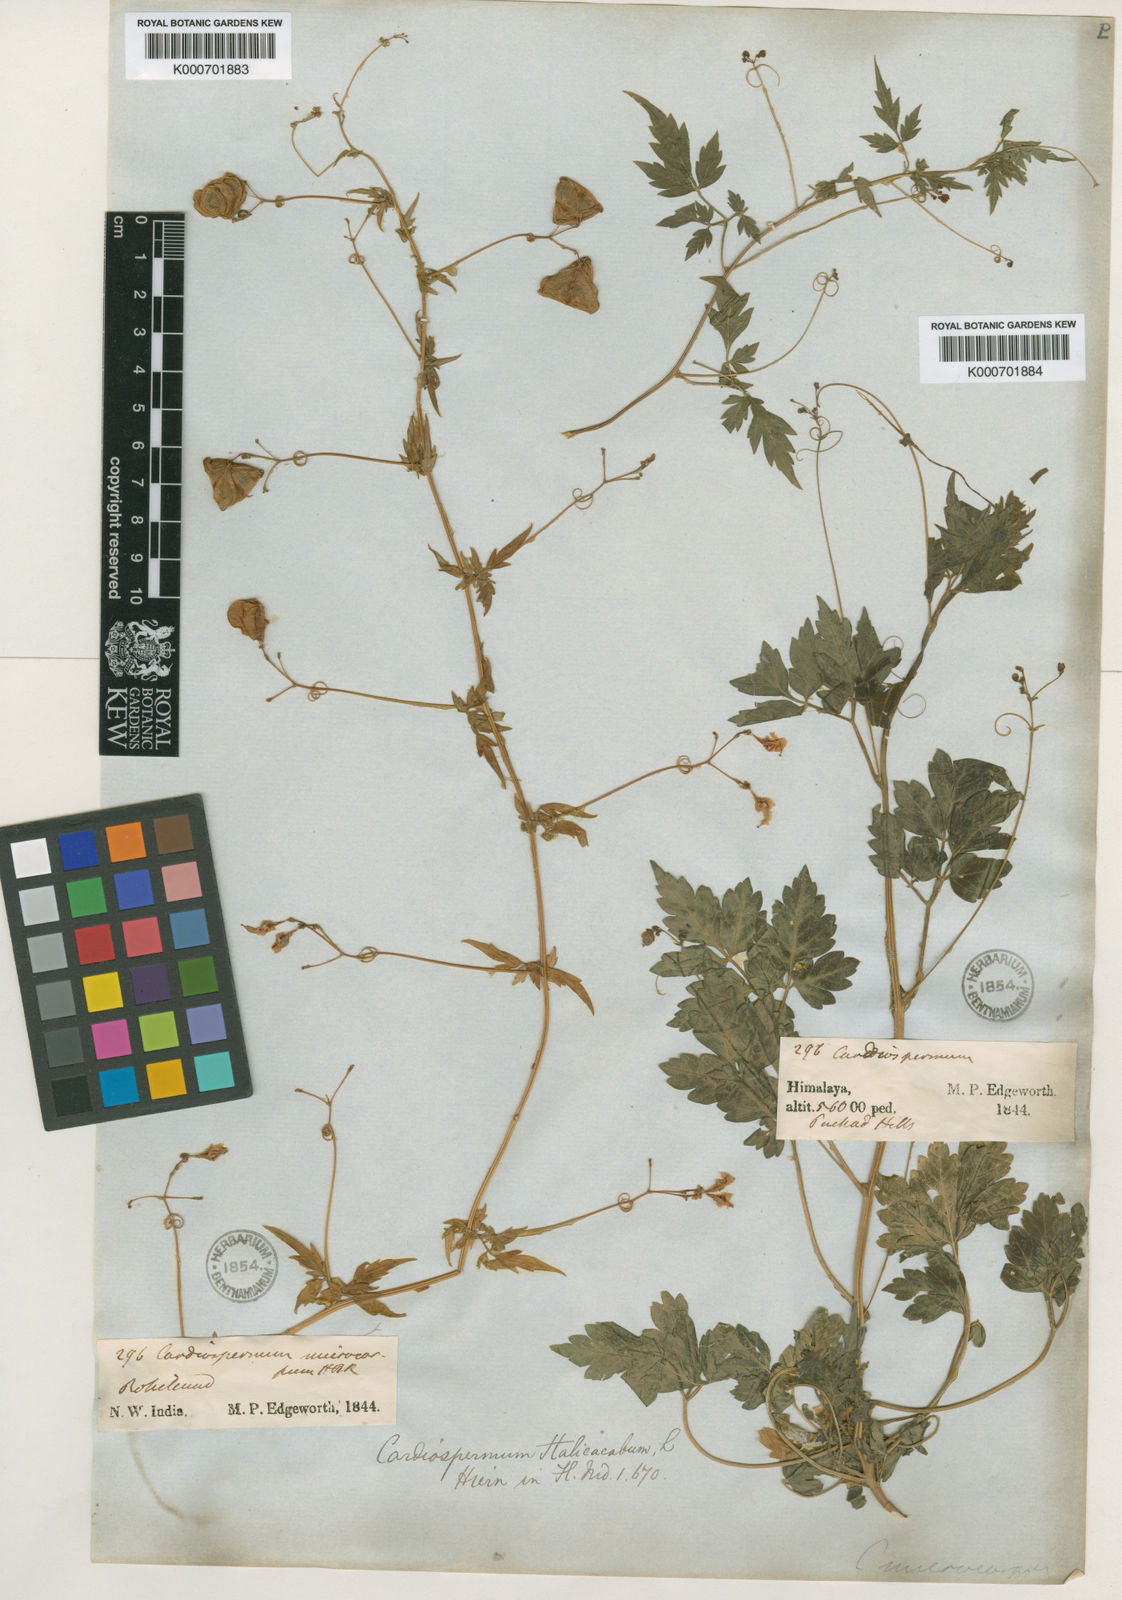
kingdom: Plantae
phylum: Tracheophyta
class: Magnoliopsida
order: Sapindales
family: Sapindaceae
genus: Cardiospermum
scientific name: Cardiospermum halicacabum
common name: Balloon vine
